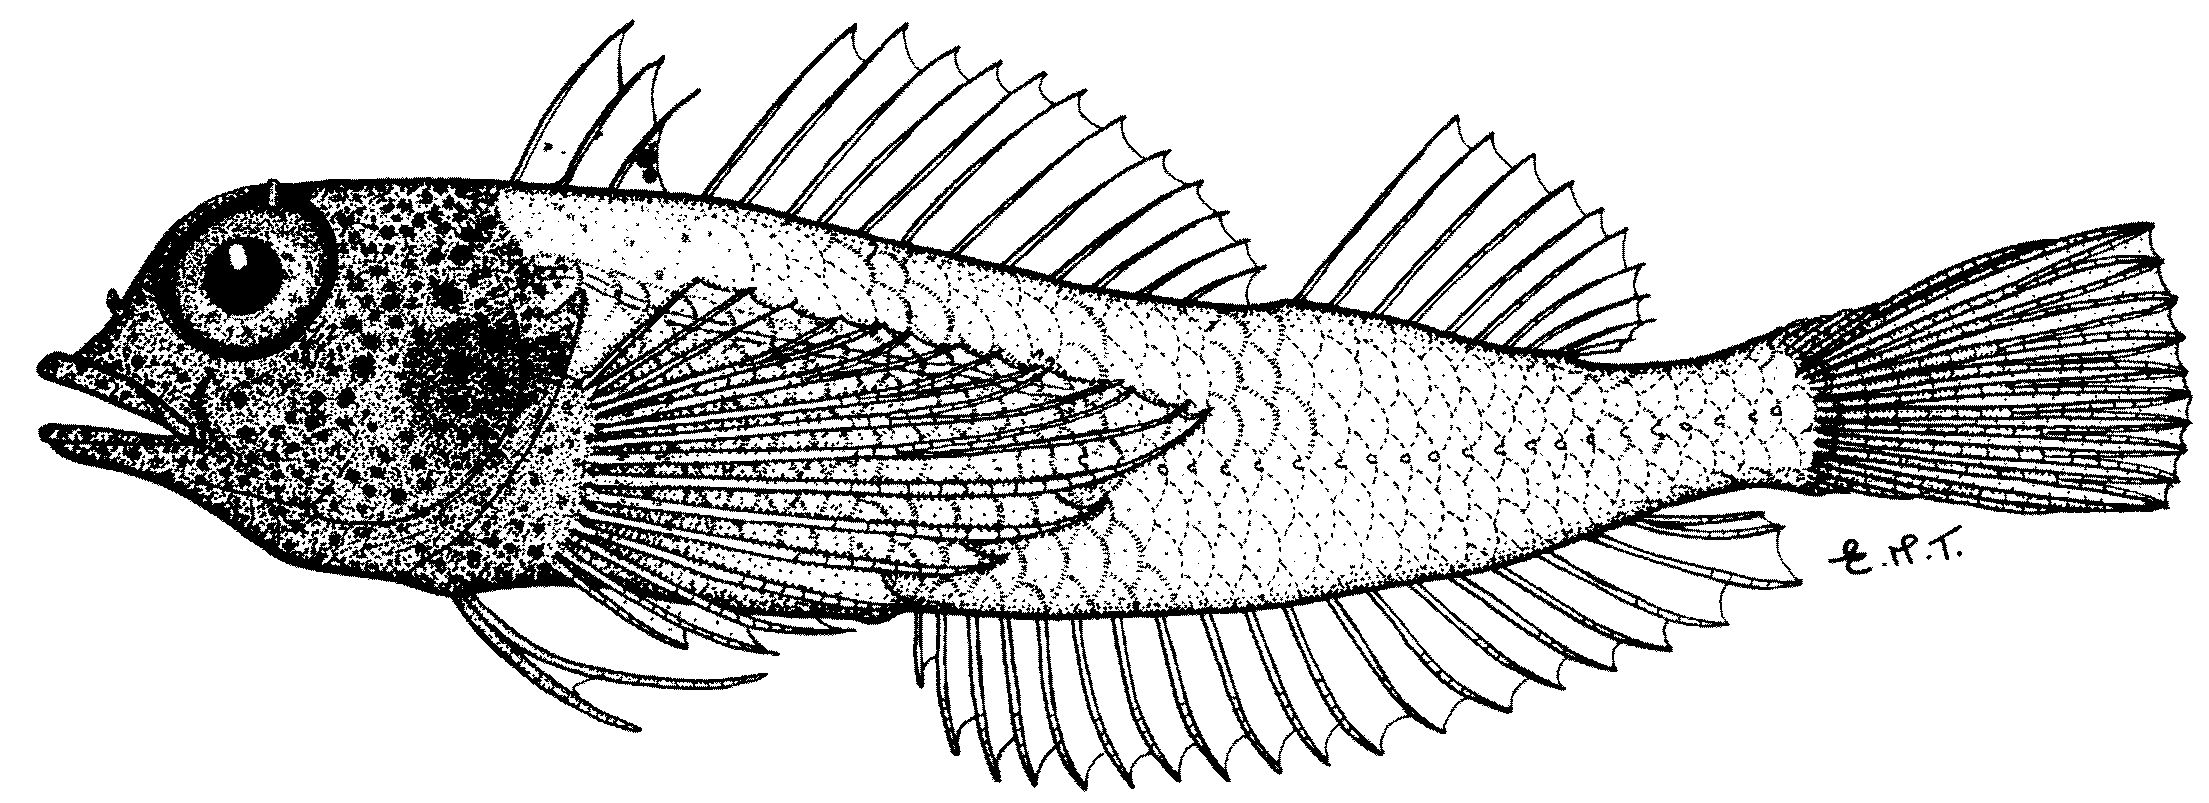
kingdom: Animalia
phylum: Chordata
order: Perciformes
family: Tripterygiidae
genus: Enneapterygius
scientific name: Enneapterygius abeli
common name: Yellow triplefin
